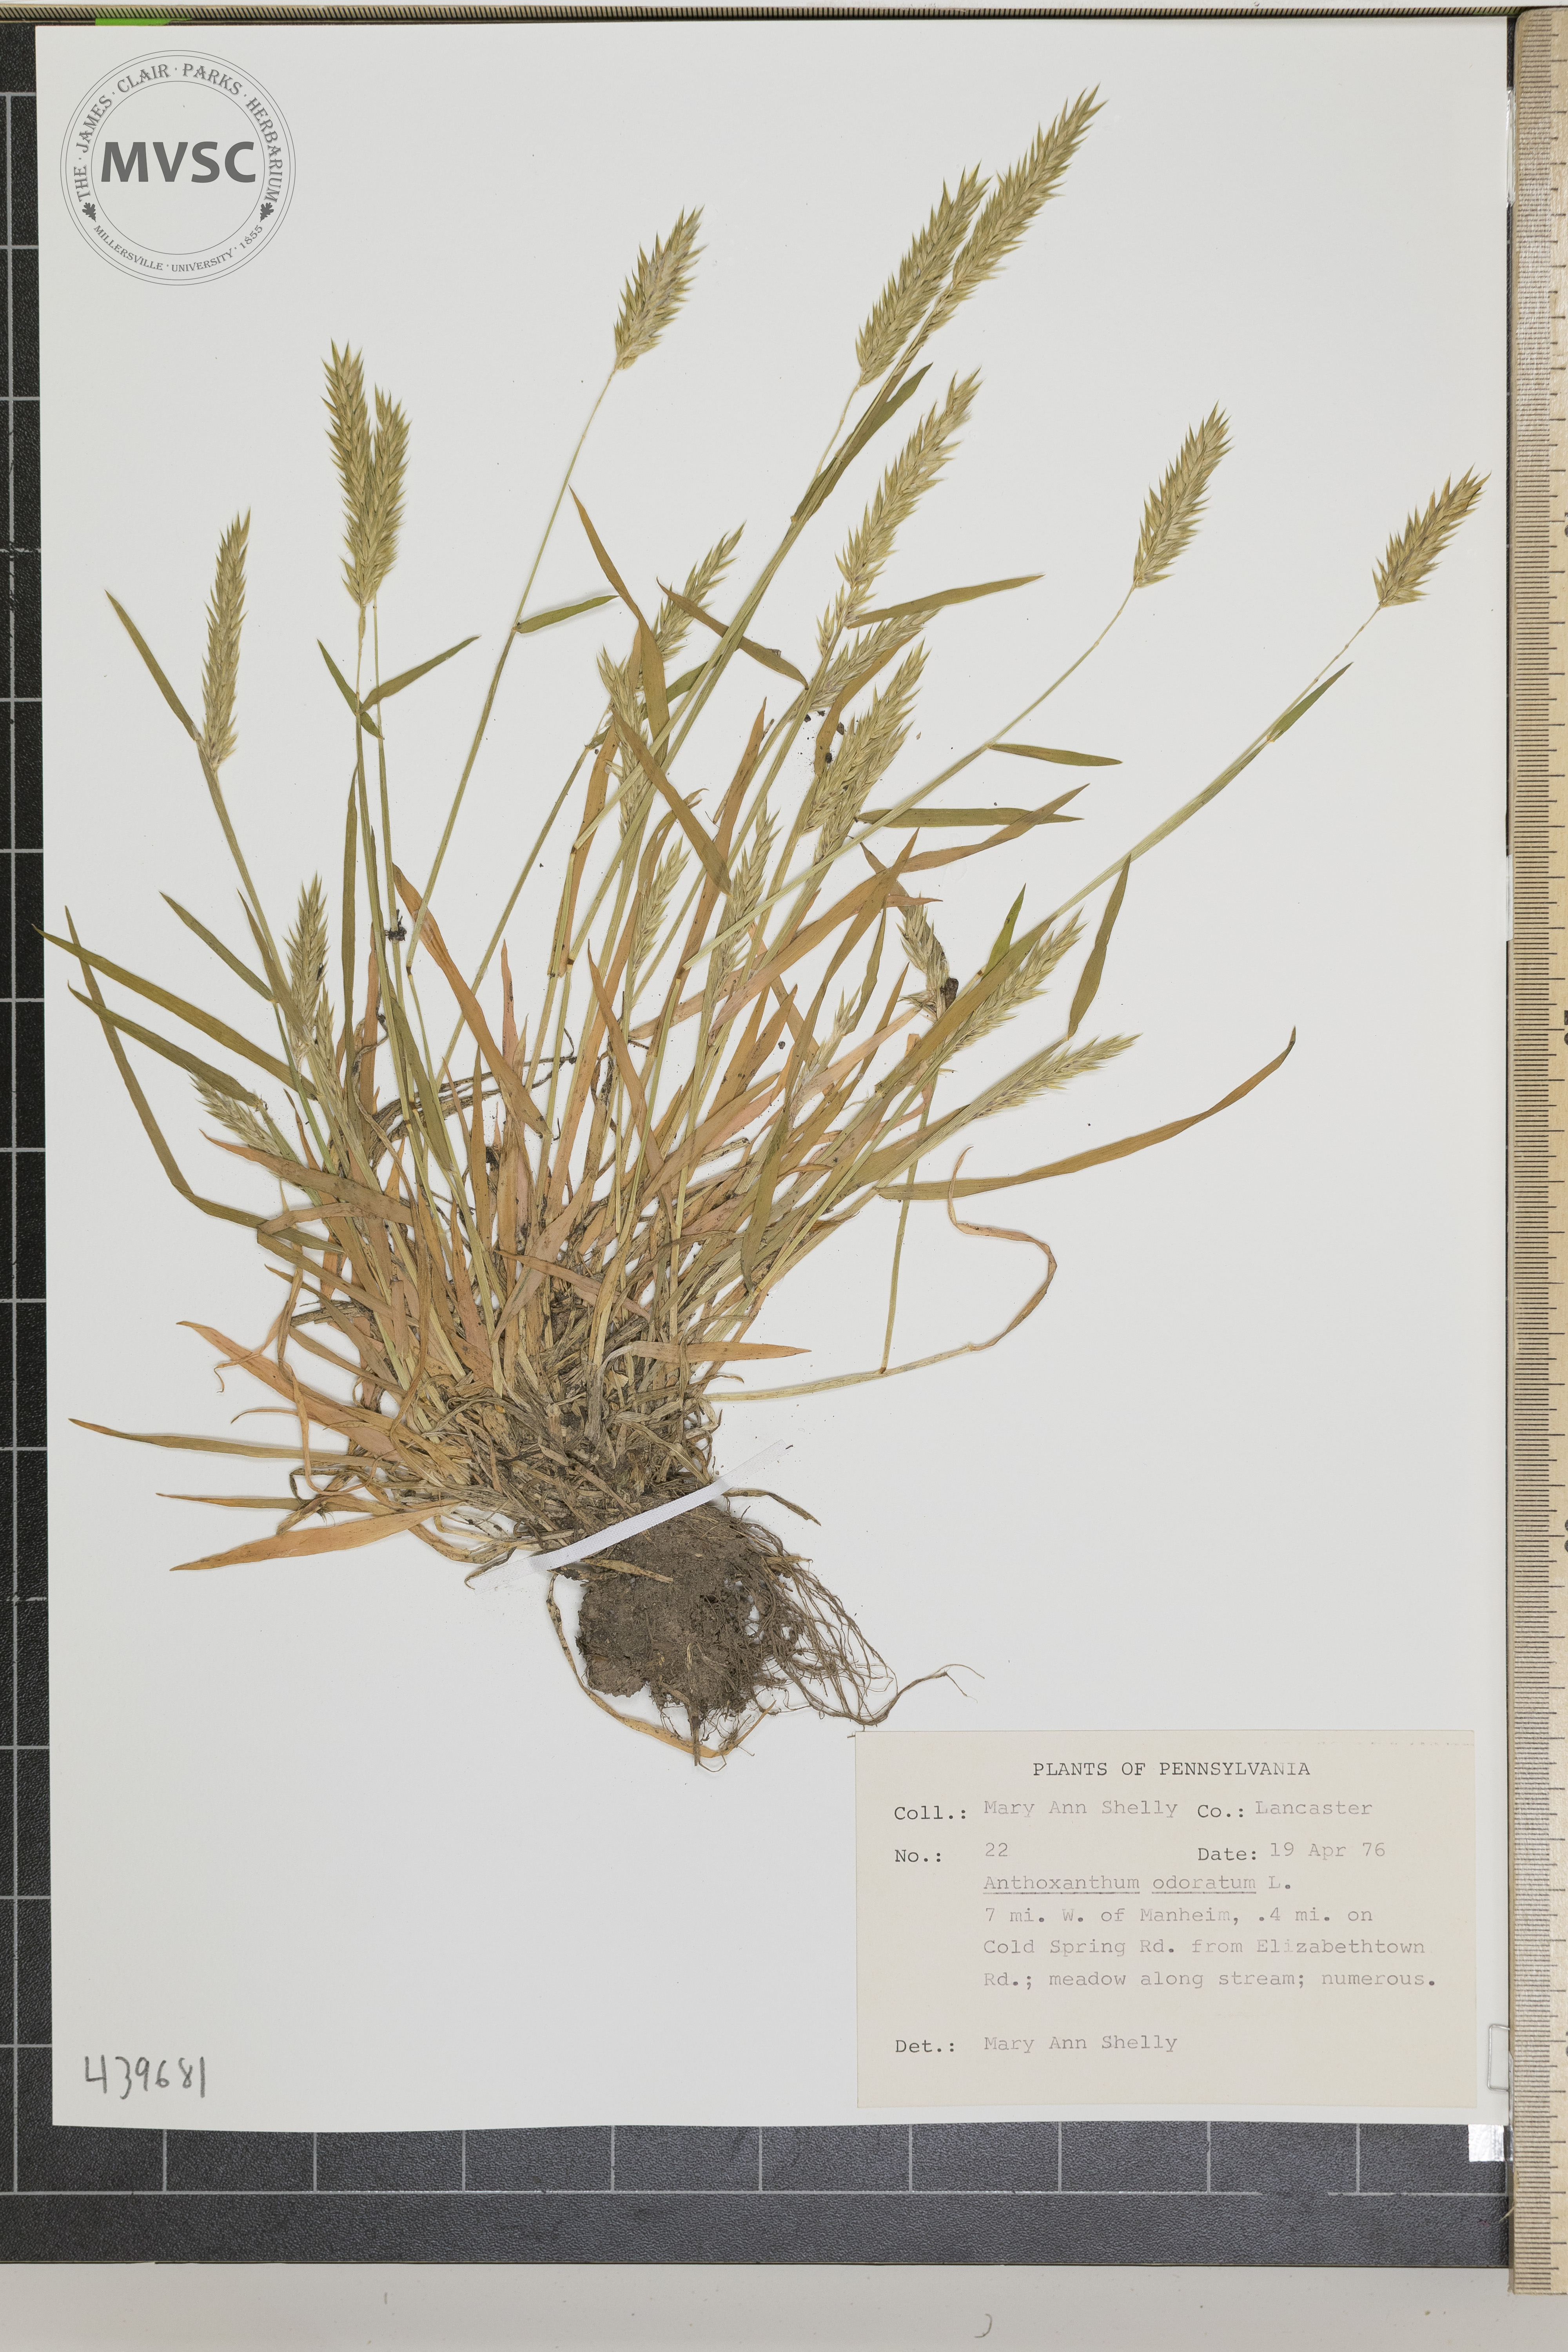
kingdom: Plantae
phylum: Tracheophyta
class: Liliopsida
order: Poales
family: Poaceae
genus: Anthoxanthum
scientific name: Anthoxanthum odoratum
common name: Sweet vernalgrass
